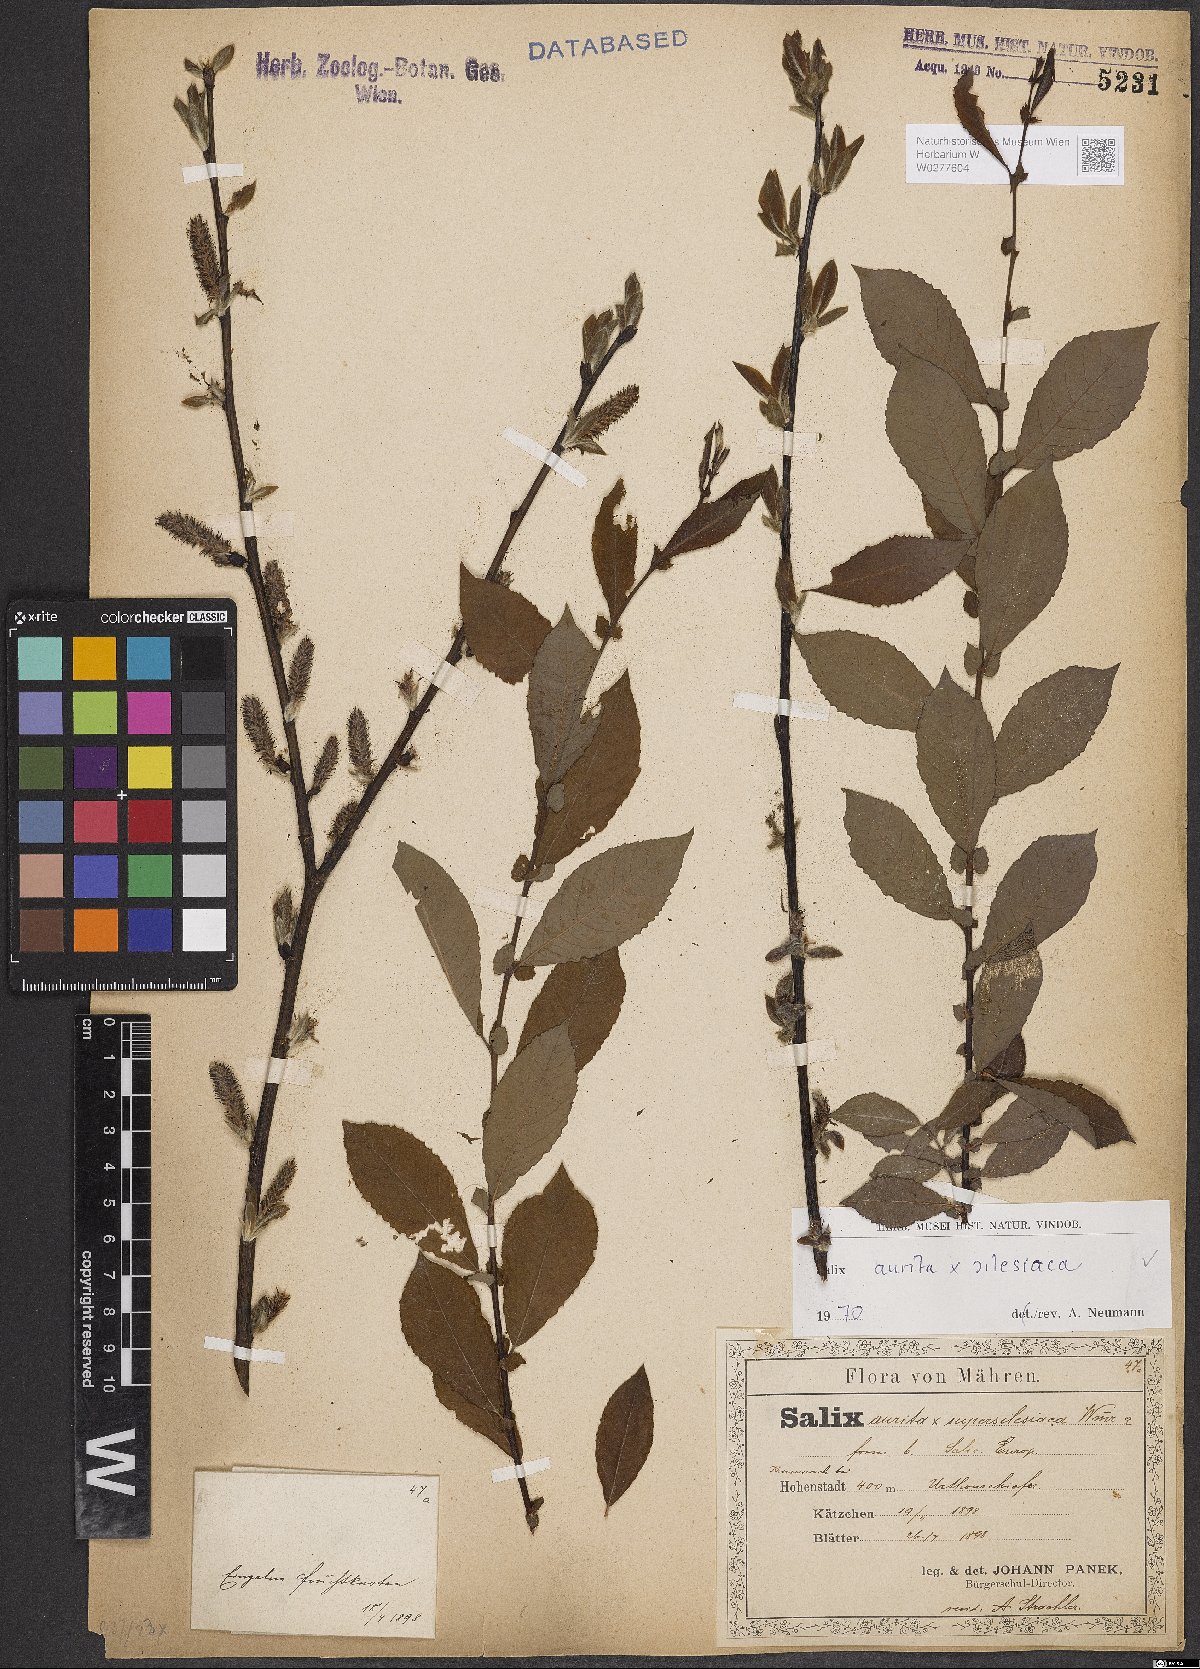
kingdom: Plantae
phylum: Tracheophyta
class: Magnoliopsida
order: Malpighiales
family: Salicaceae
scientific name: Salicaceae
